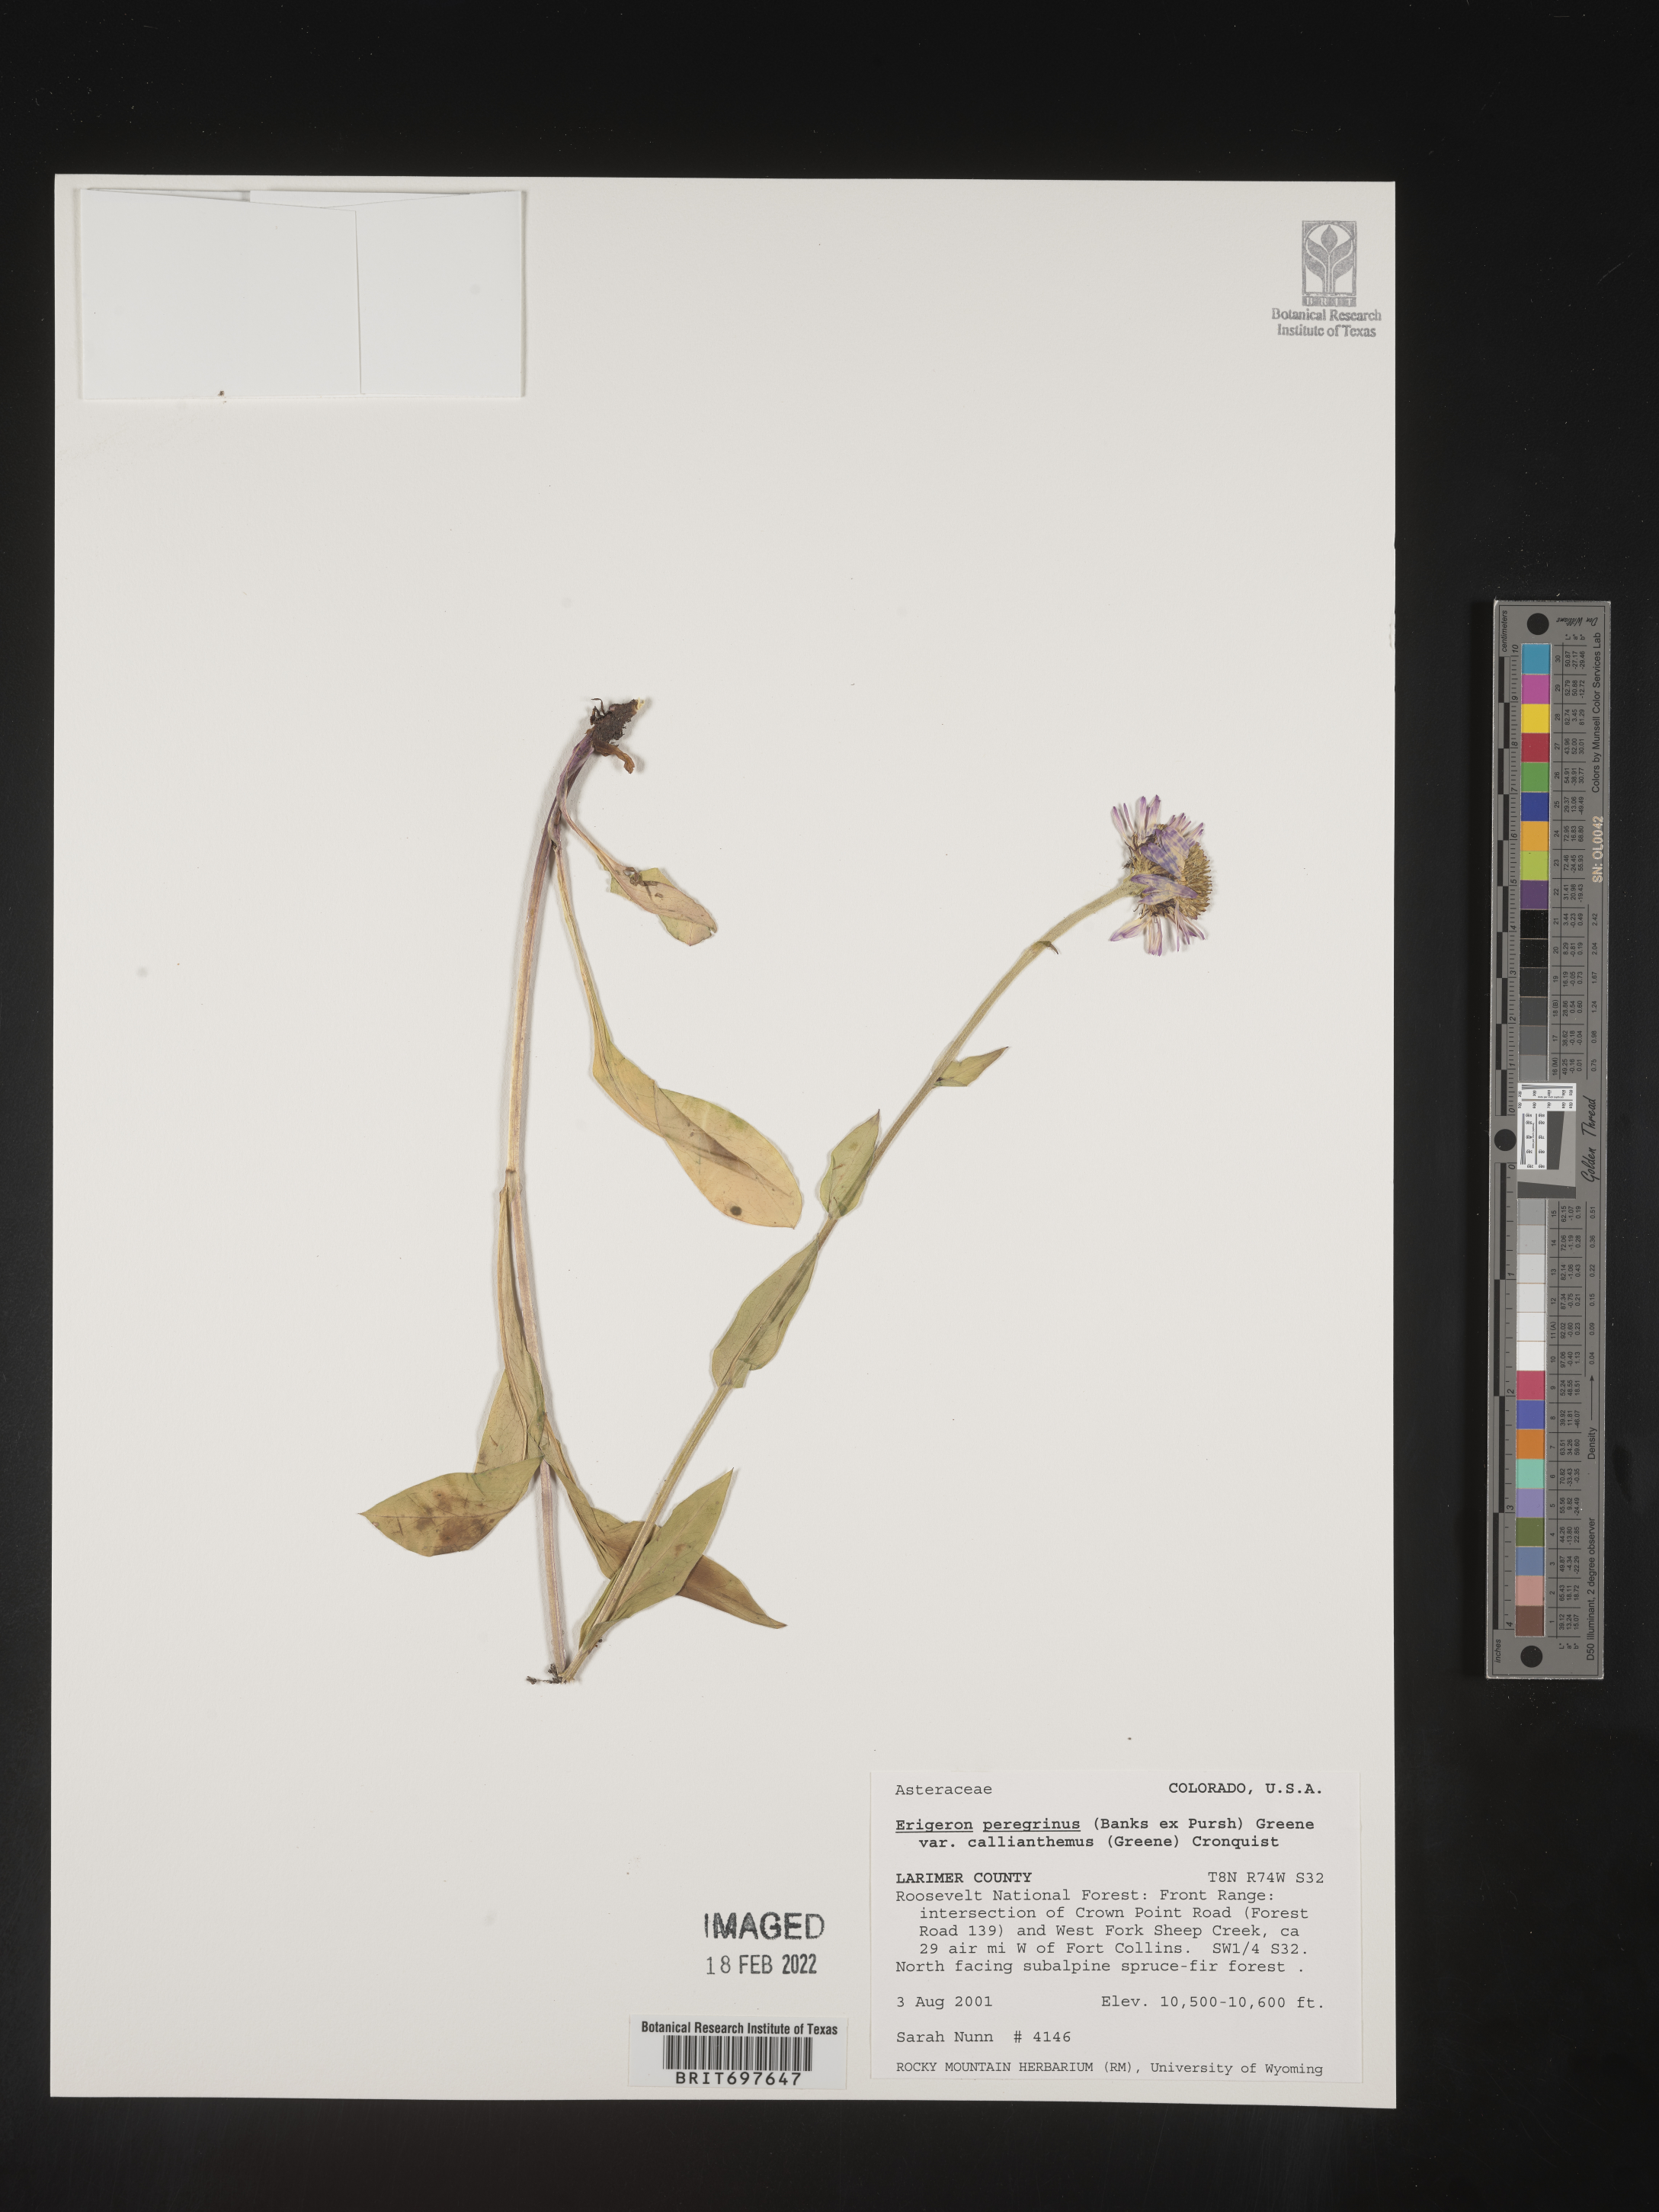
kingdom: Plantae
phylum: Tracheophyta
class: Magnoliopsida
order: Asterales
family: Asteraceae
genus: Erigeron
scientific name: Erigeron peregrinus
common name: Peregrine fleabane
